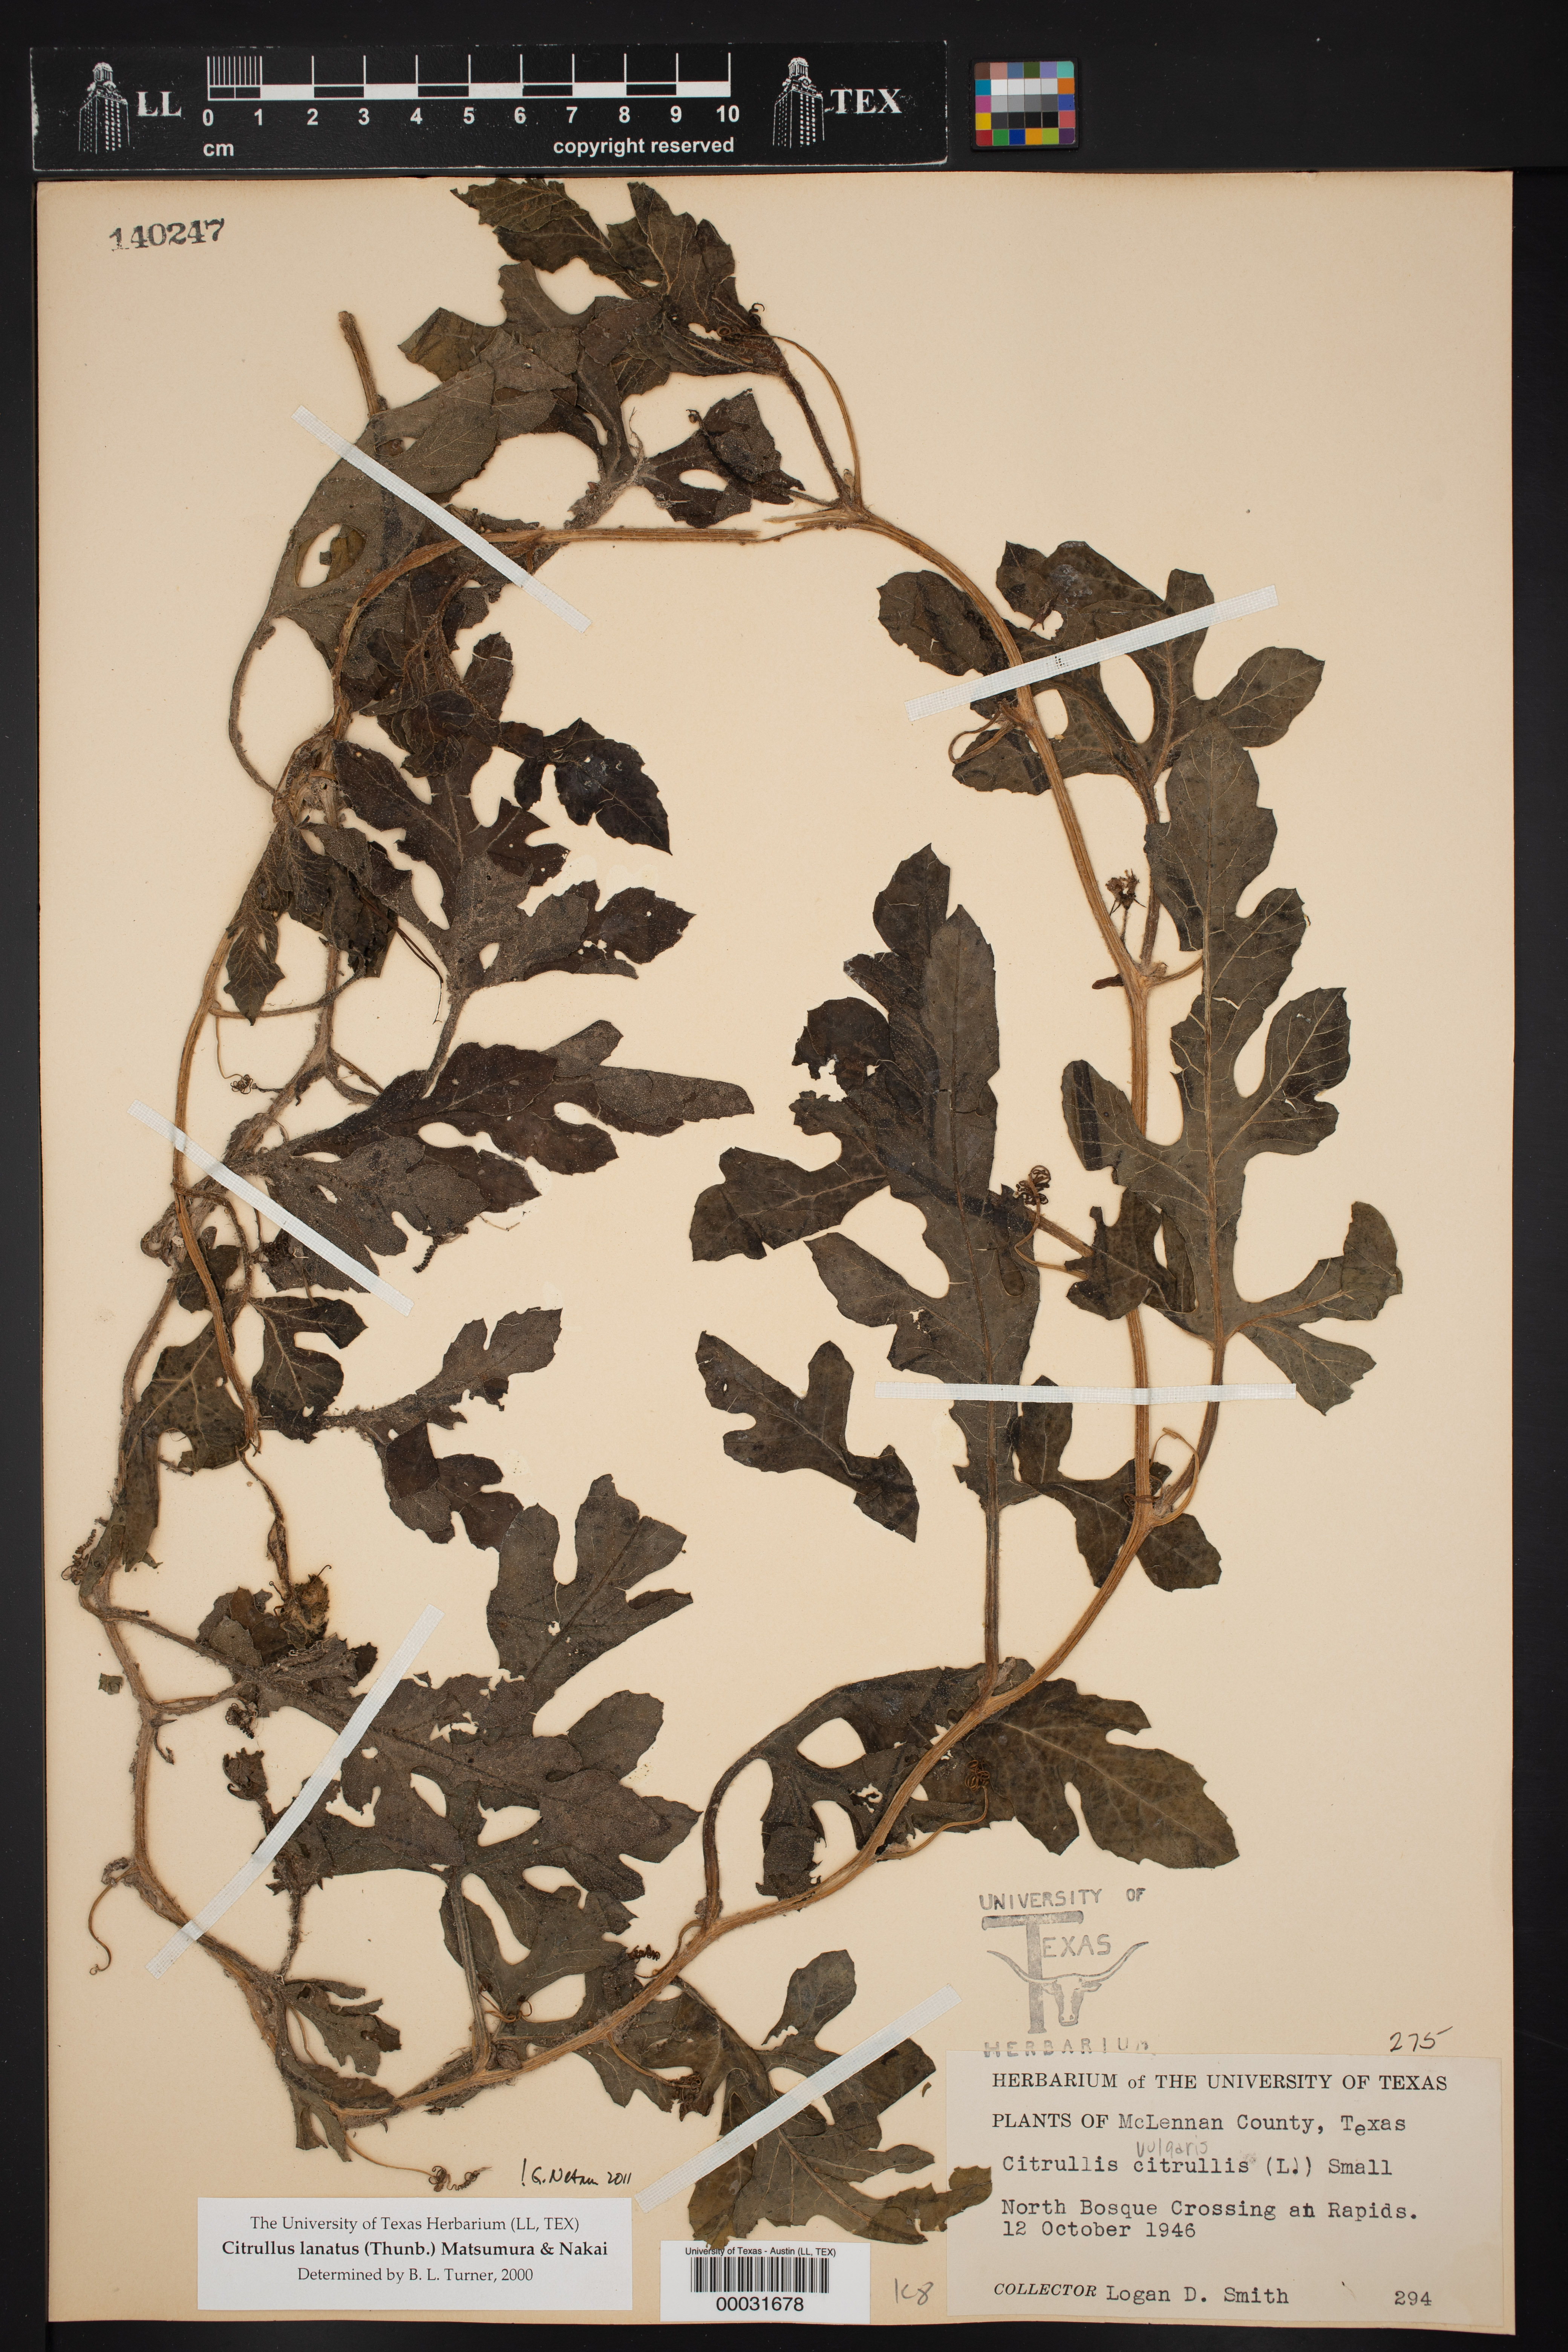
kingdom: Plantae
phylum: Tracheophyta
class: Magnoliopsida
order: Cucurbitales
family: Cucurbitaceae
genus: Citrullus
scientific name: Citrullus lanatus
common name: Watermelon
